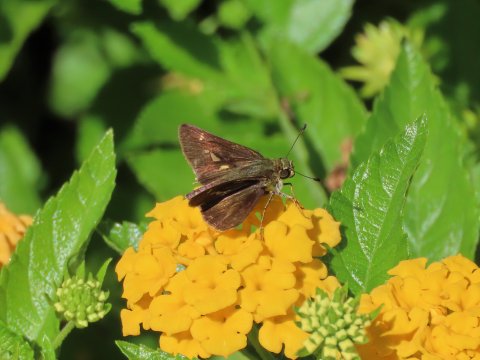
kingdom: Animalia
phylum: Arthropoda
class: Insecta
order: Lepidoptera
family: Hesperiidae
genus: Vernia
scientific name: Vernia verna
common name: Little Glassywing
